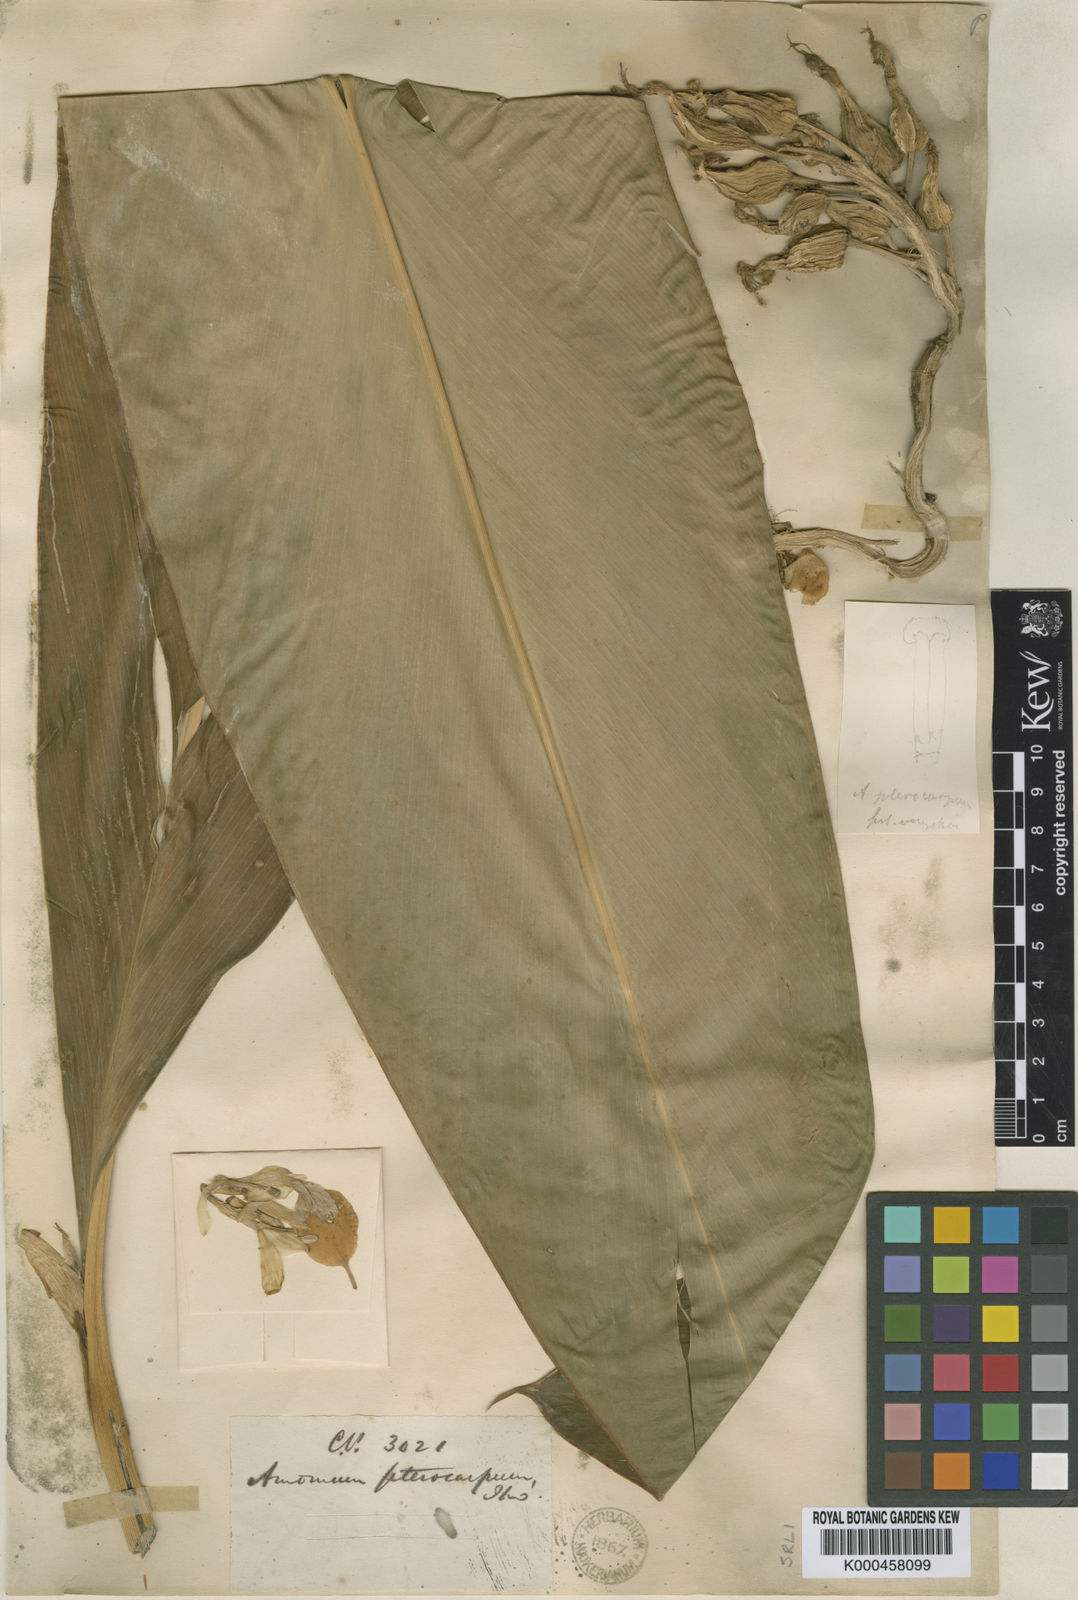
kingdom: Plantae
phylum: Tracheophyta
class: Liliopsida
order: Zingiberales
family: Zingiberaceae
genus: Amomum
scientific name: Amomum
